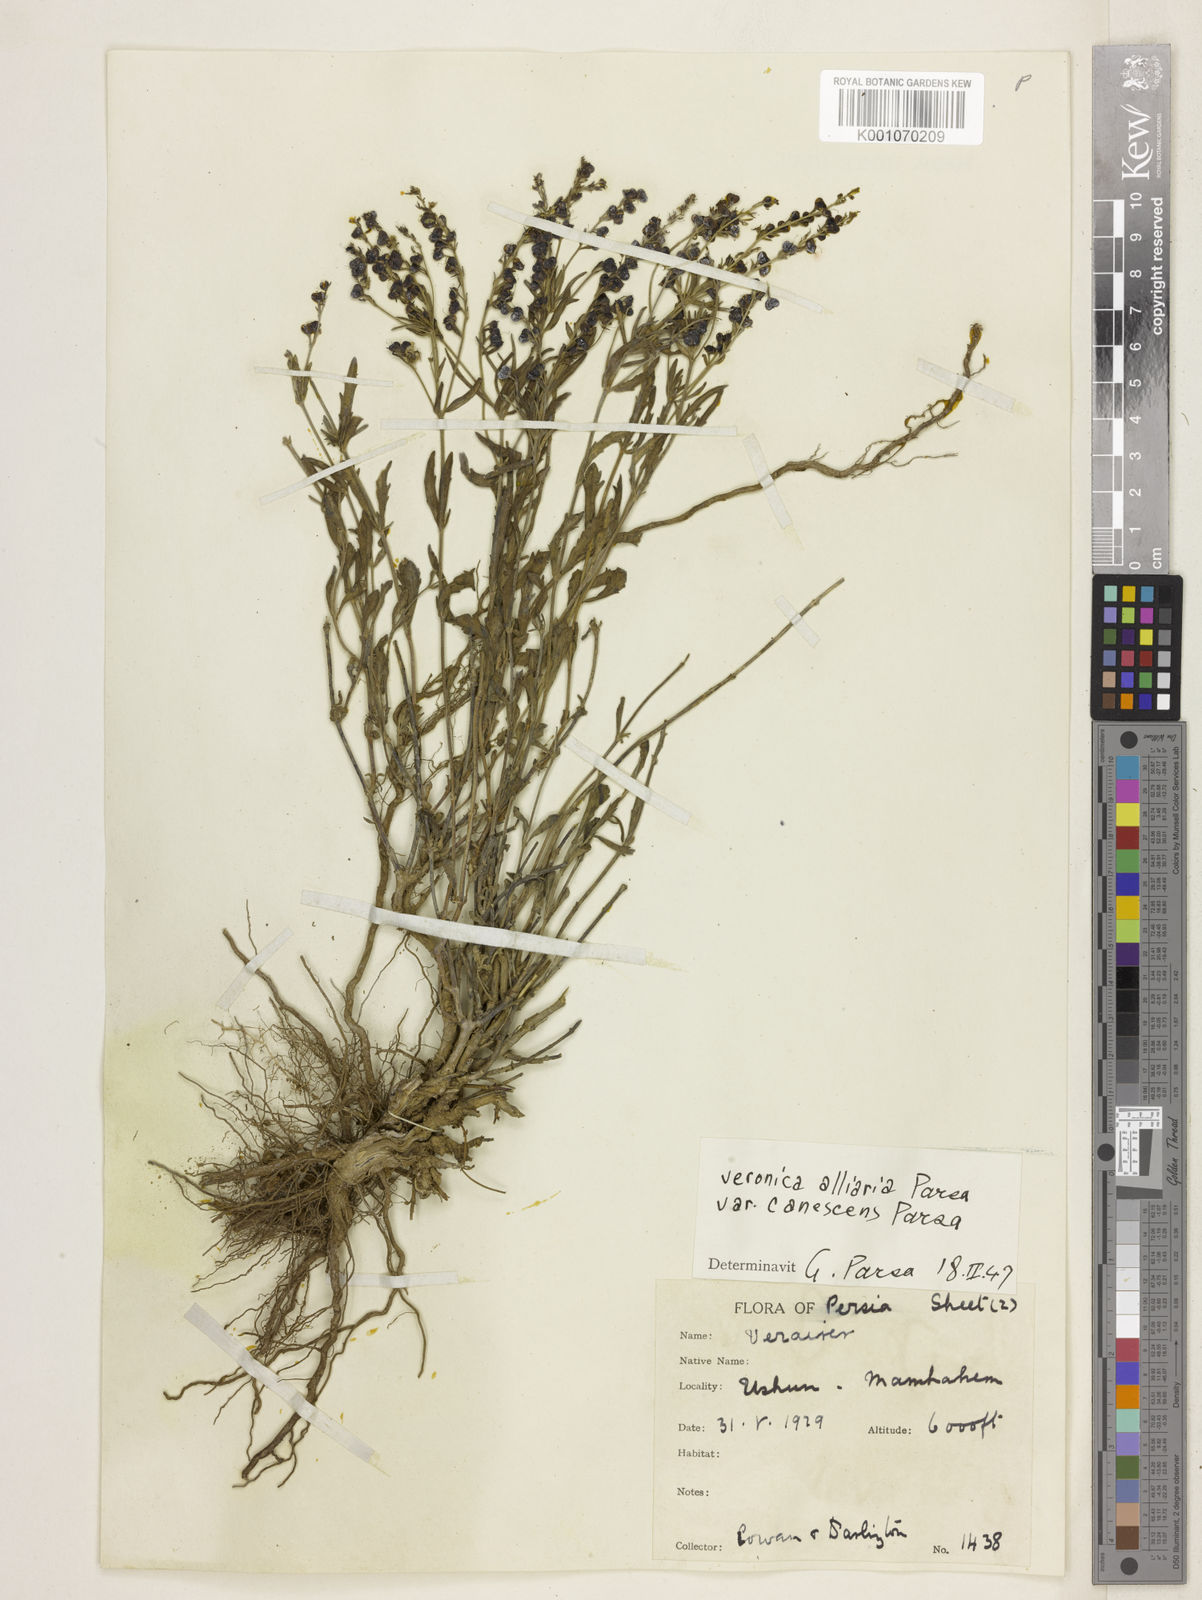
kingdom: Plantae
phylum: Tracheophyta
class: Magnoliopsida
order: Lamiales
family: Plantaginaceae
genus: Veronica
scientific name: Veronica orientalis
